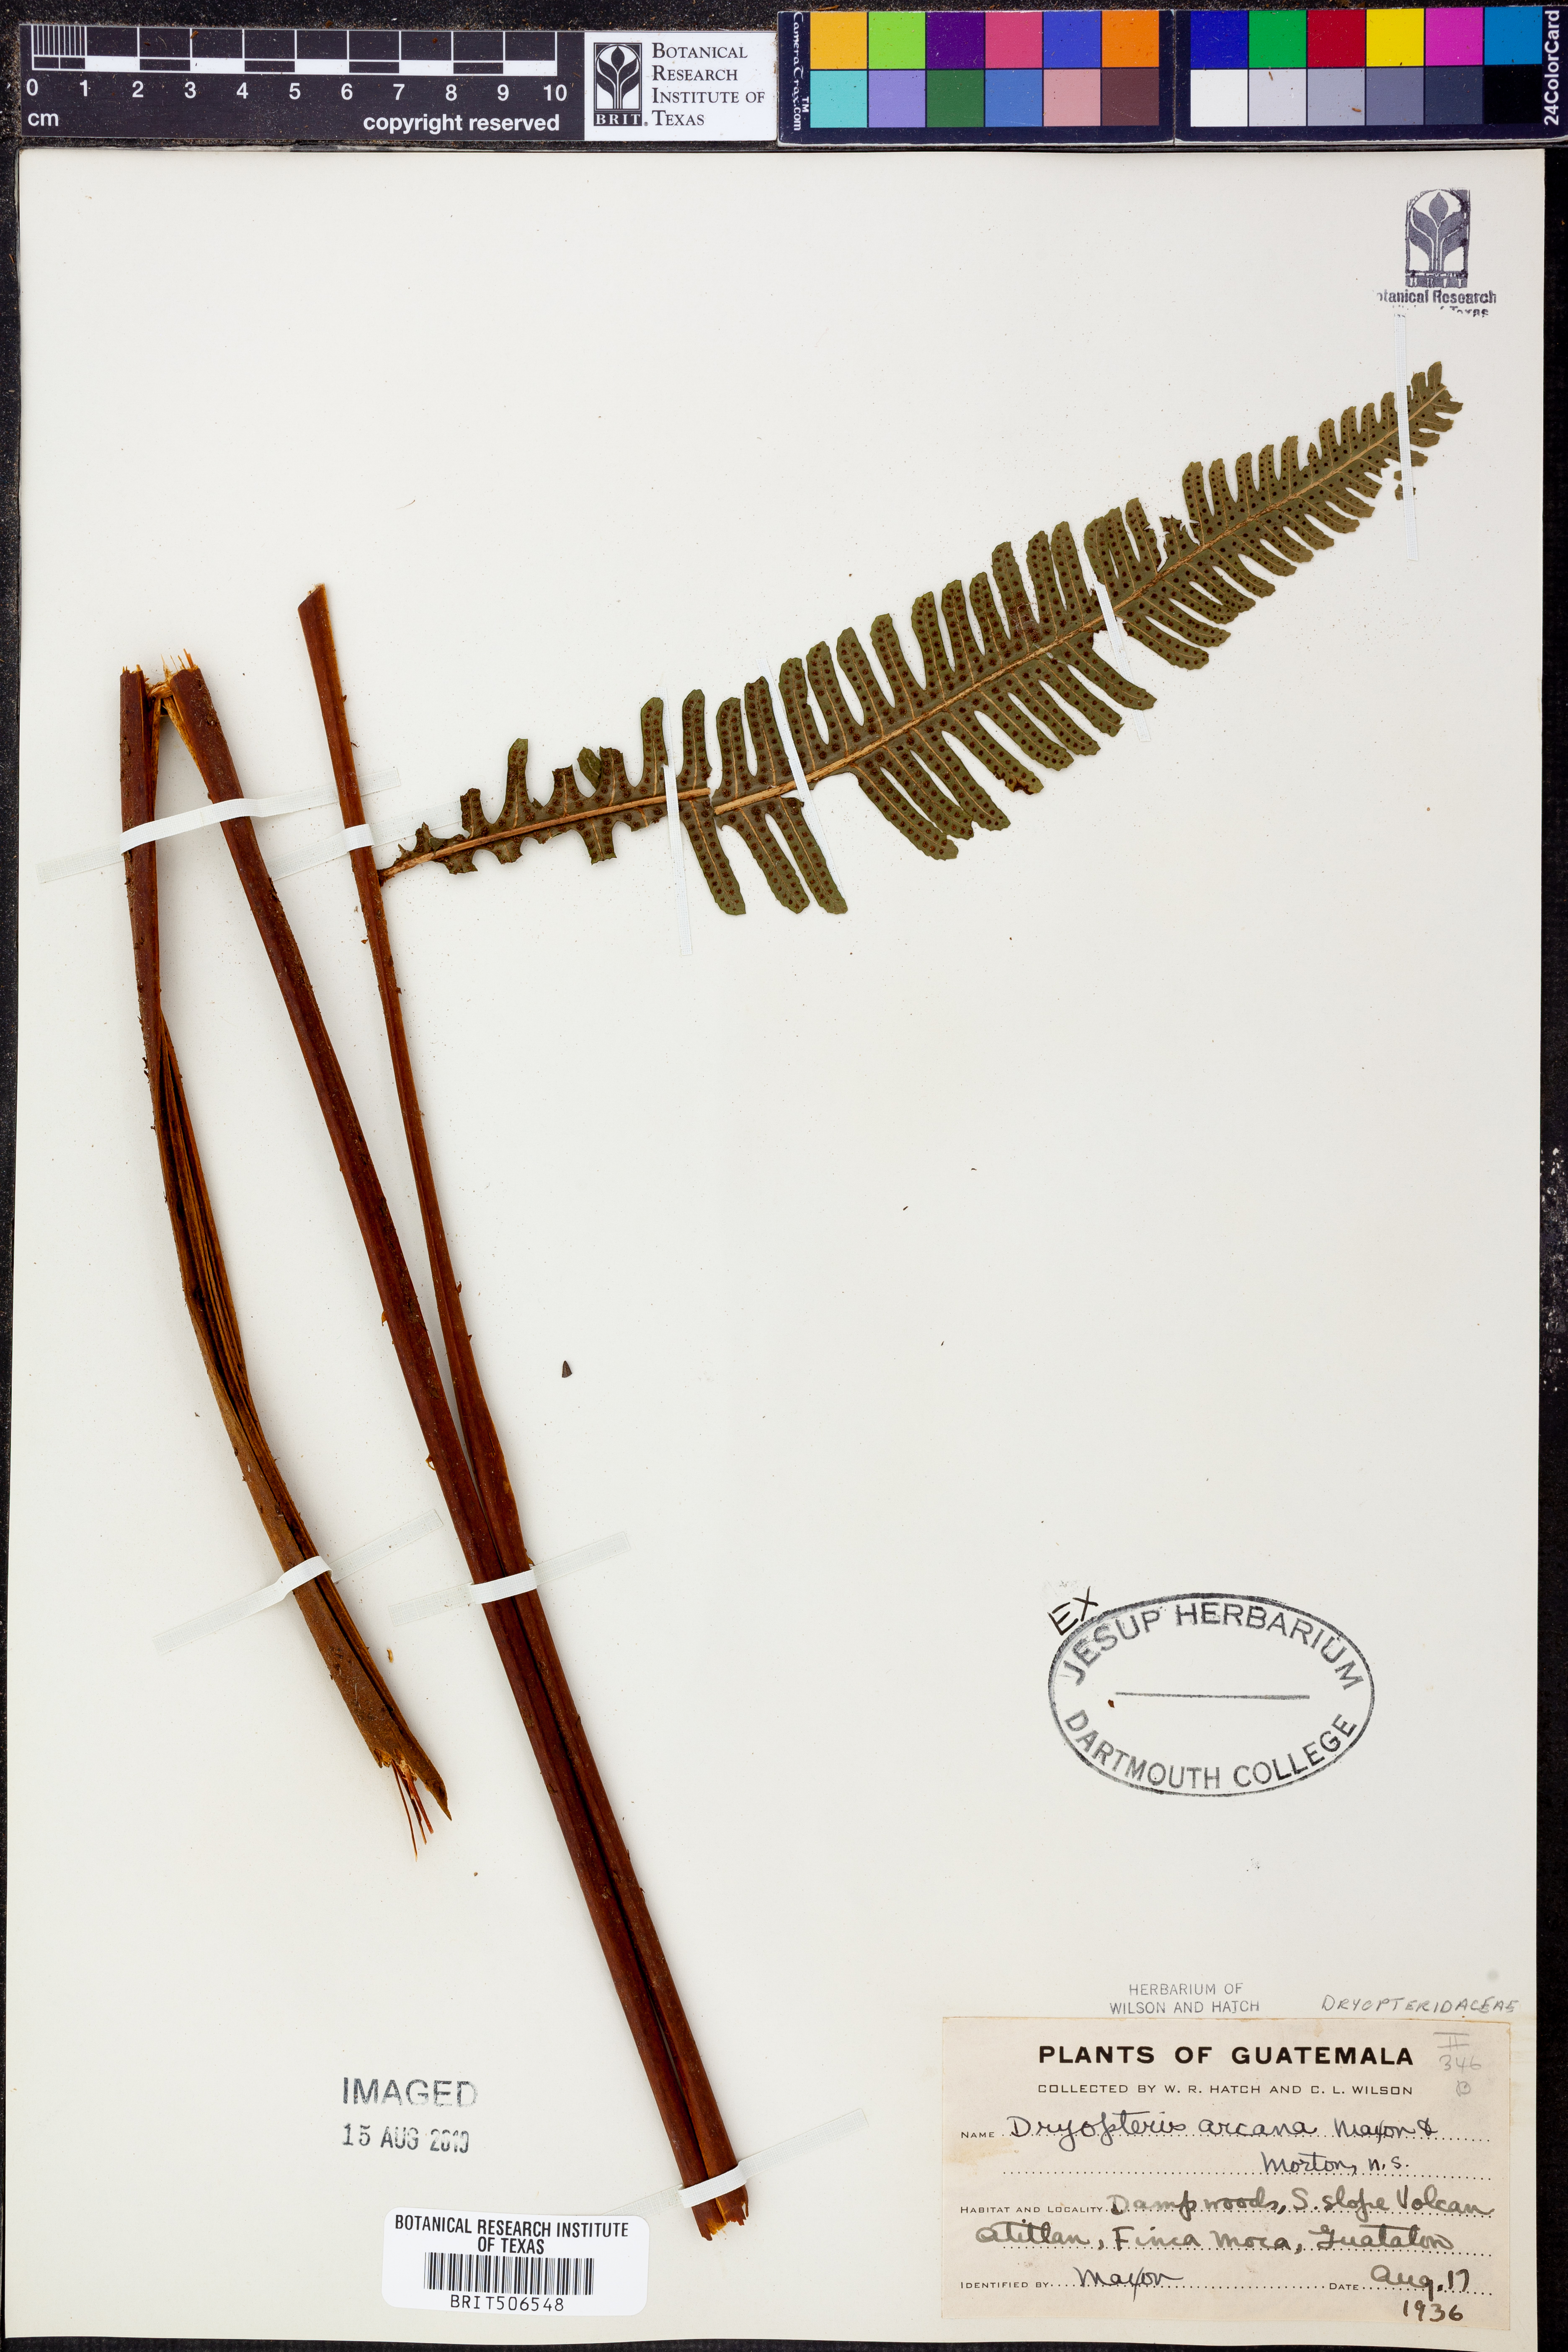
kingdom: Plantae
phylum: Tracheophyta
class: Polypodiopsida
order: Polypodiales
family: Thelypteridaceae
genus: Meniscium
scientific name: Meniscium arcanum
